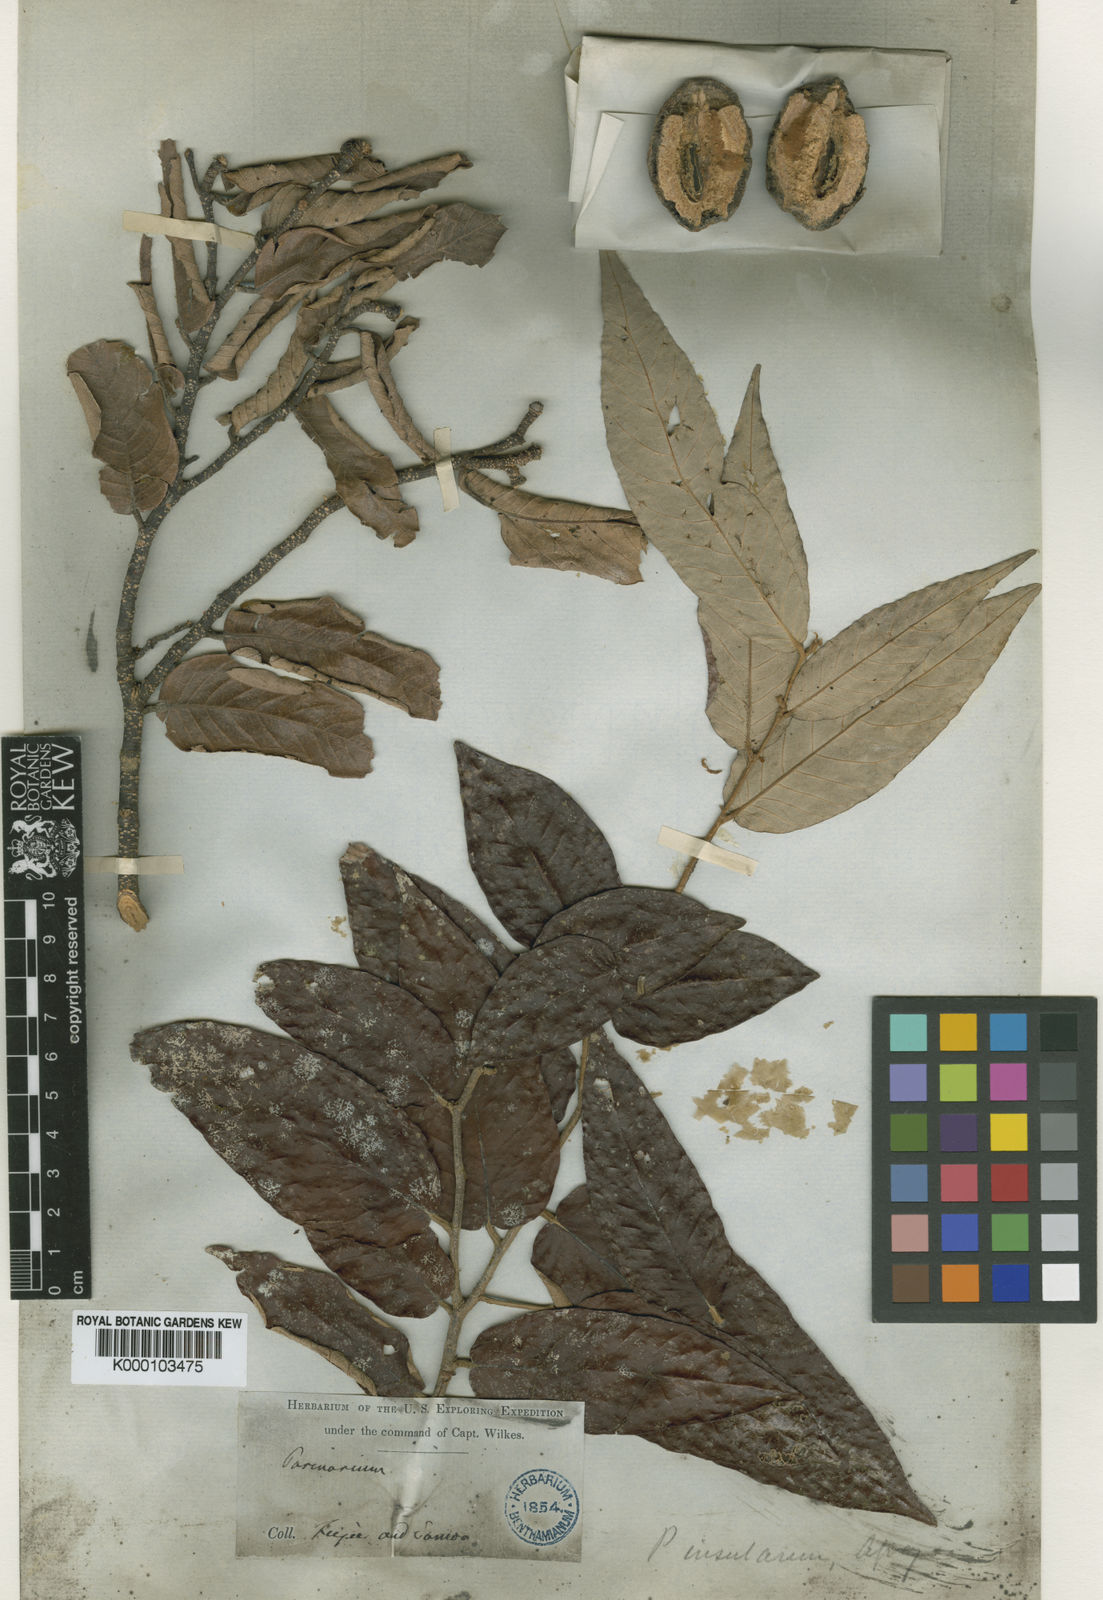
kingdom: Plantae
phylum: Tracheophyta
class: Magnoliopsida
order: Malpighiales
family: Chrysobalanaceae
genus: Parinari
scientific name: Parinari insularum
